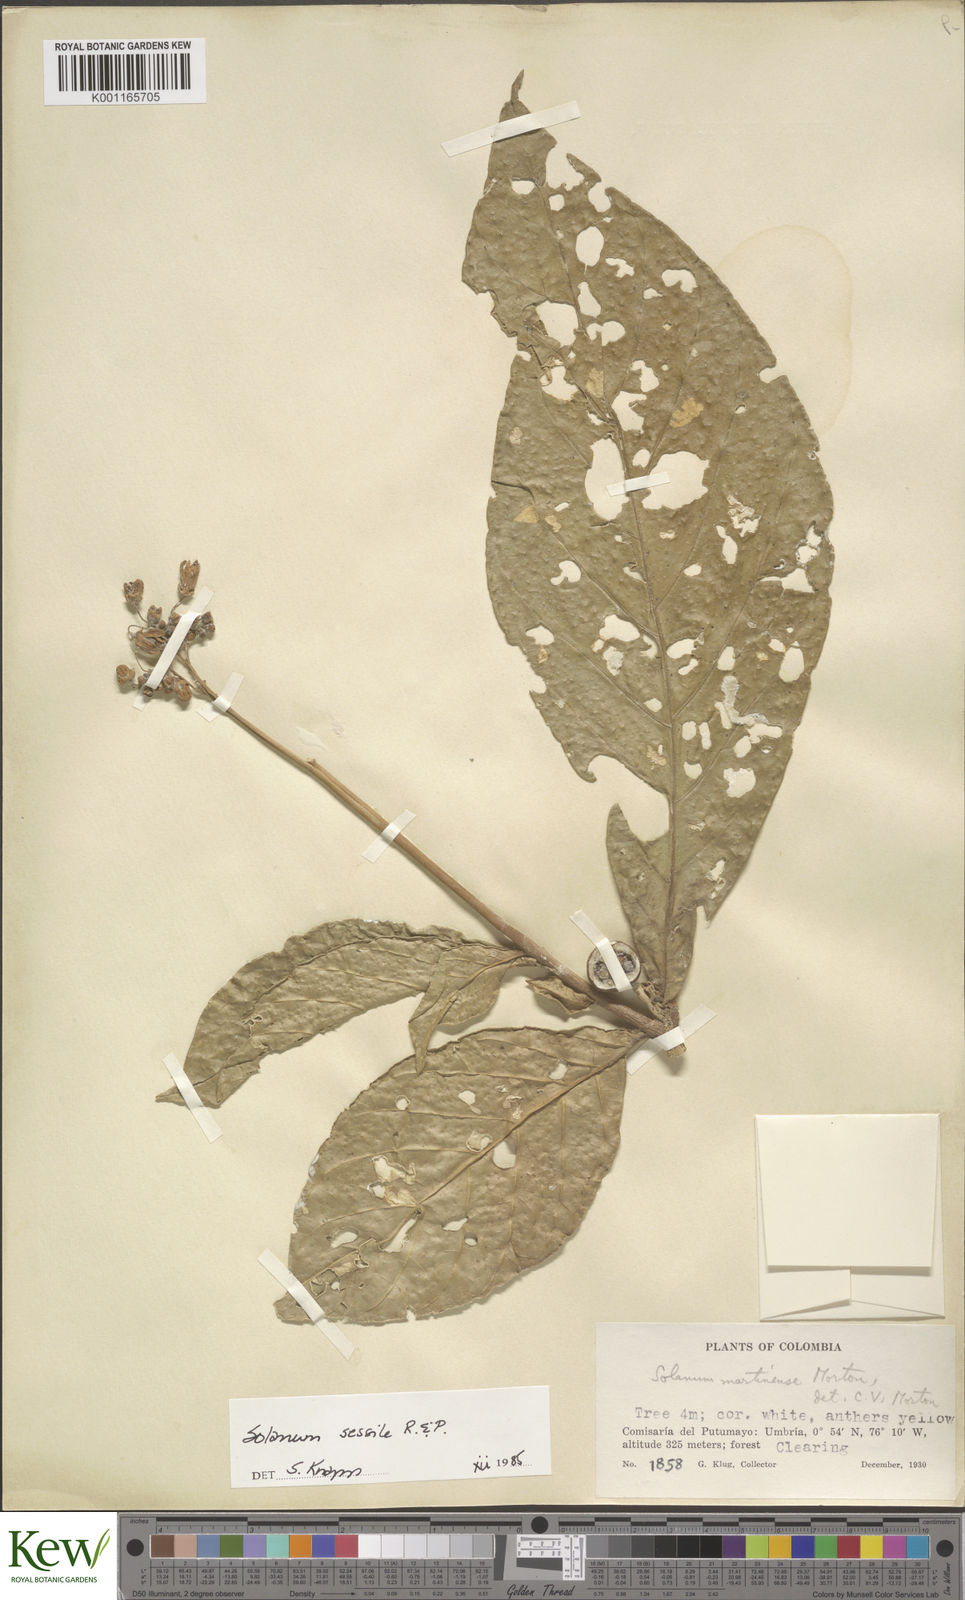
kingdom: Plantae
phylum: Tracheophyta
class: Magnoliopsida
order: Solanales
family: Solanaceae
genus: Solanum
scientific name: Solanum sessile
